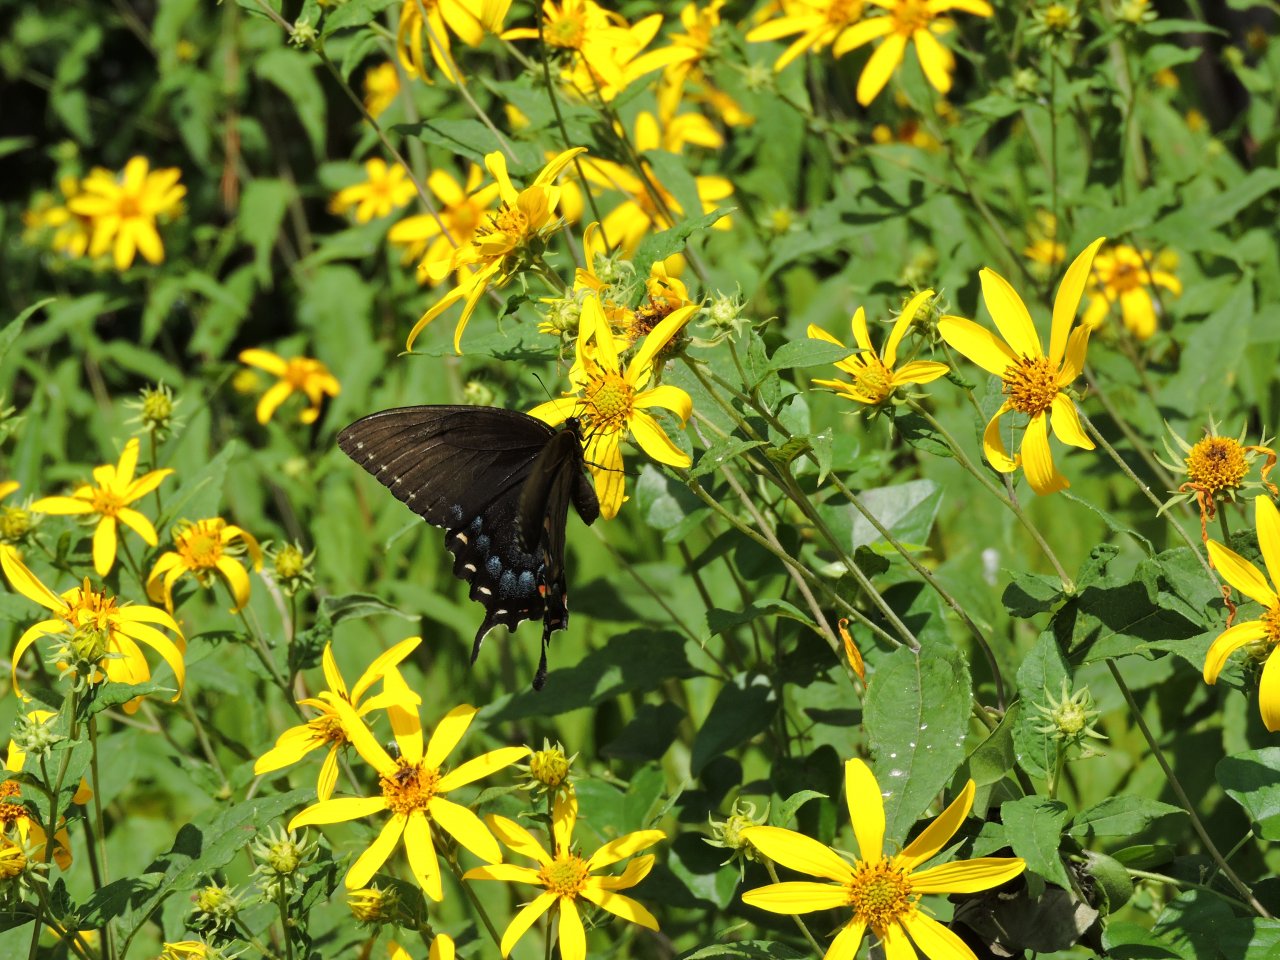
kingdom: Animalia
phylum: Arthropoda
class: Insecta
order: Lepidoptera
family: Papilionidae
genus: Pterourus
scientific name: Pterourus glaucus
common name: Eastern Tiger Swallowtail
